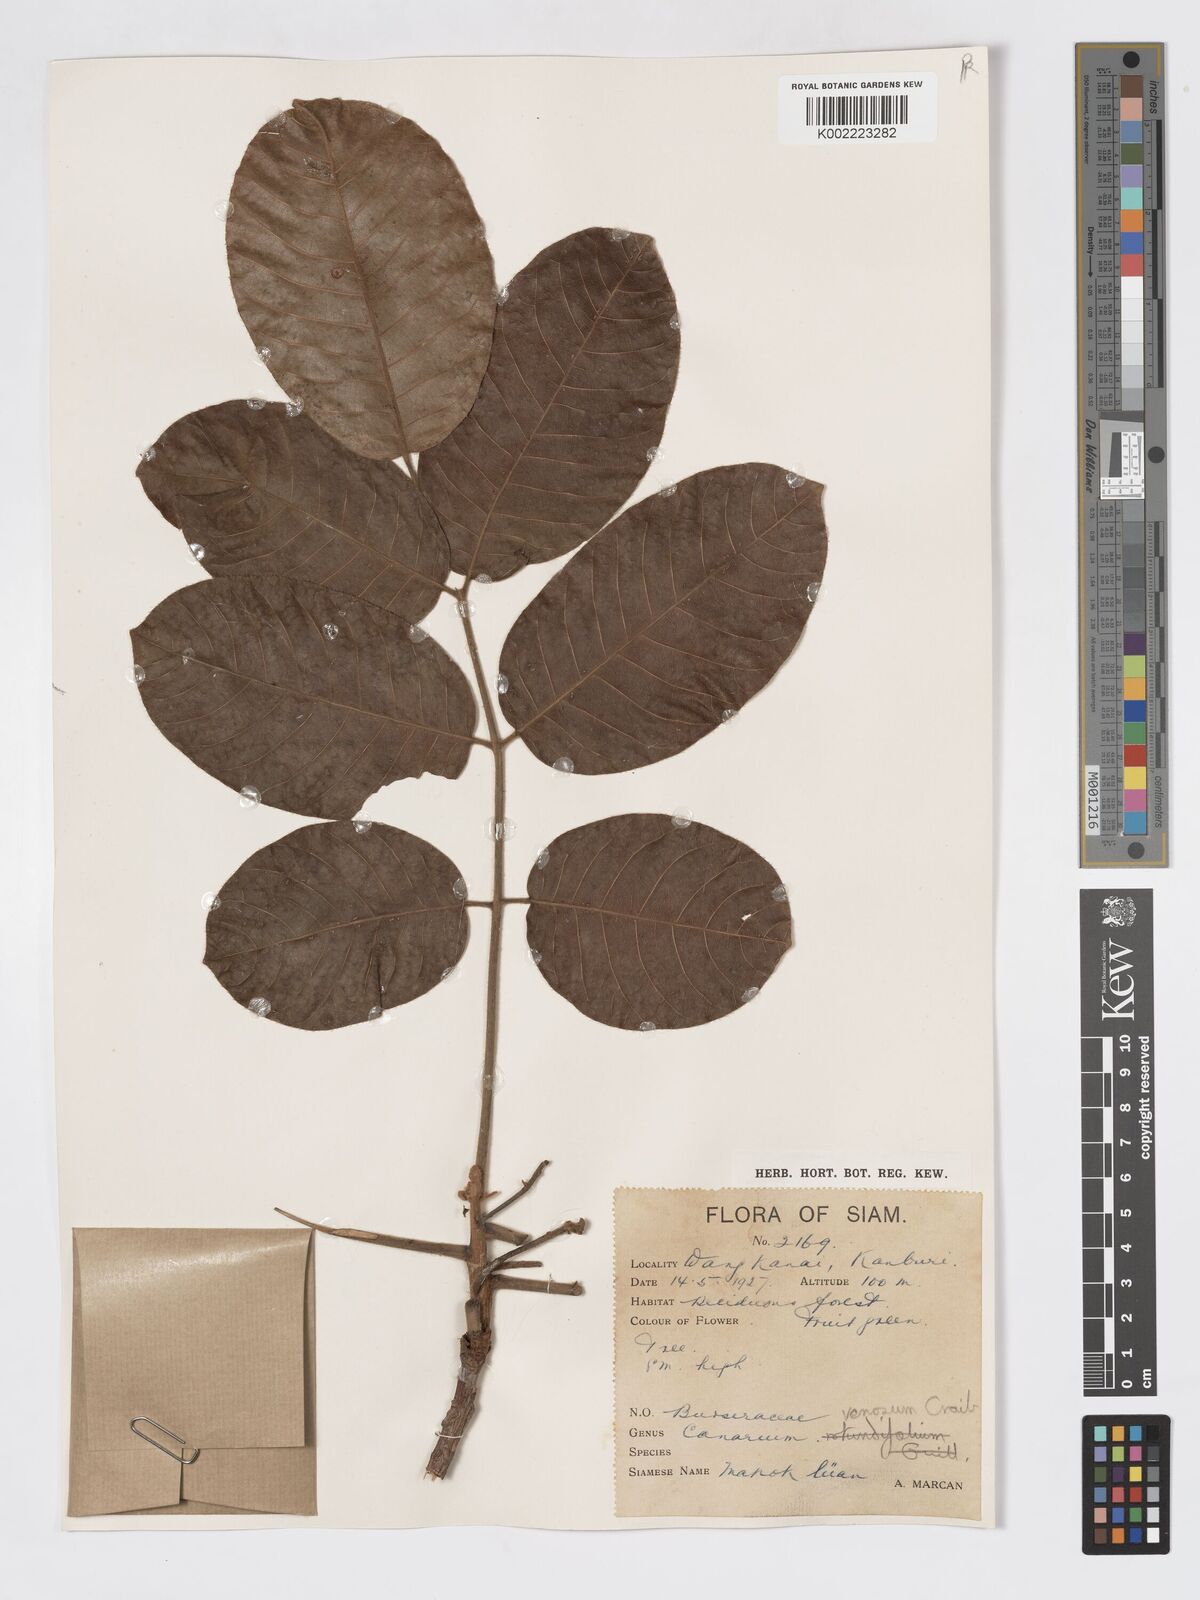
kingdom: Plantae
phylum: Tracheophyta
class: Magnoliopsida
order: Sapindales
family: Burseraceae
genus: Canarium
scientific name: Canarium subulatum
